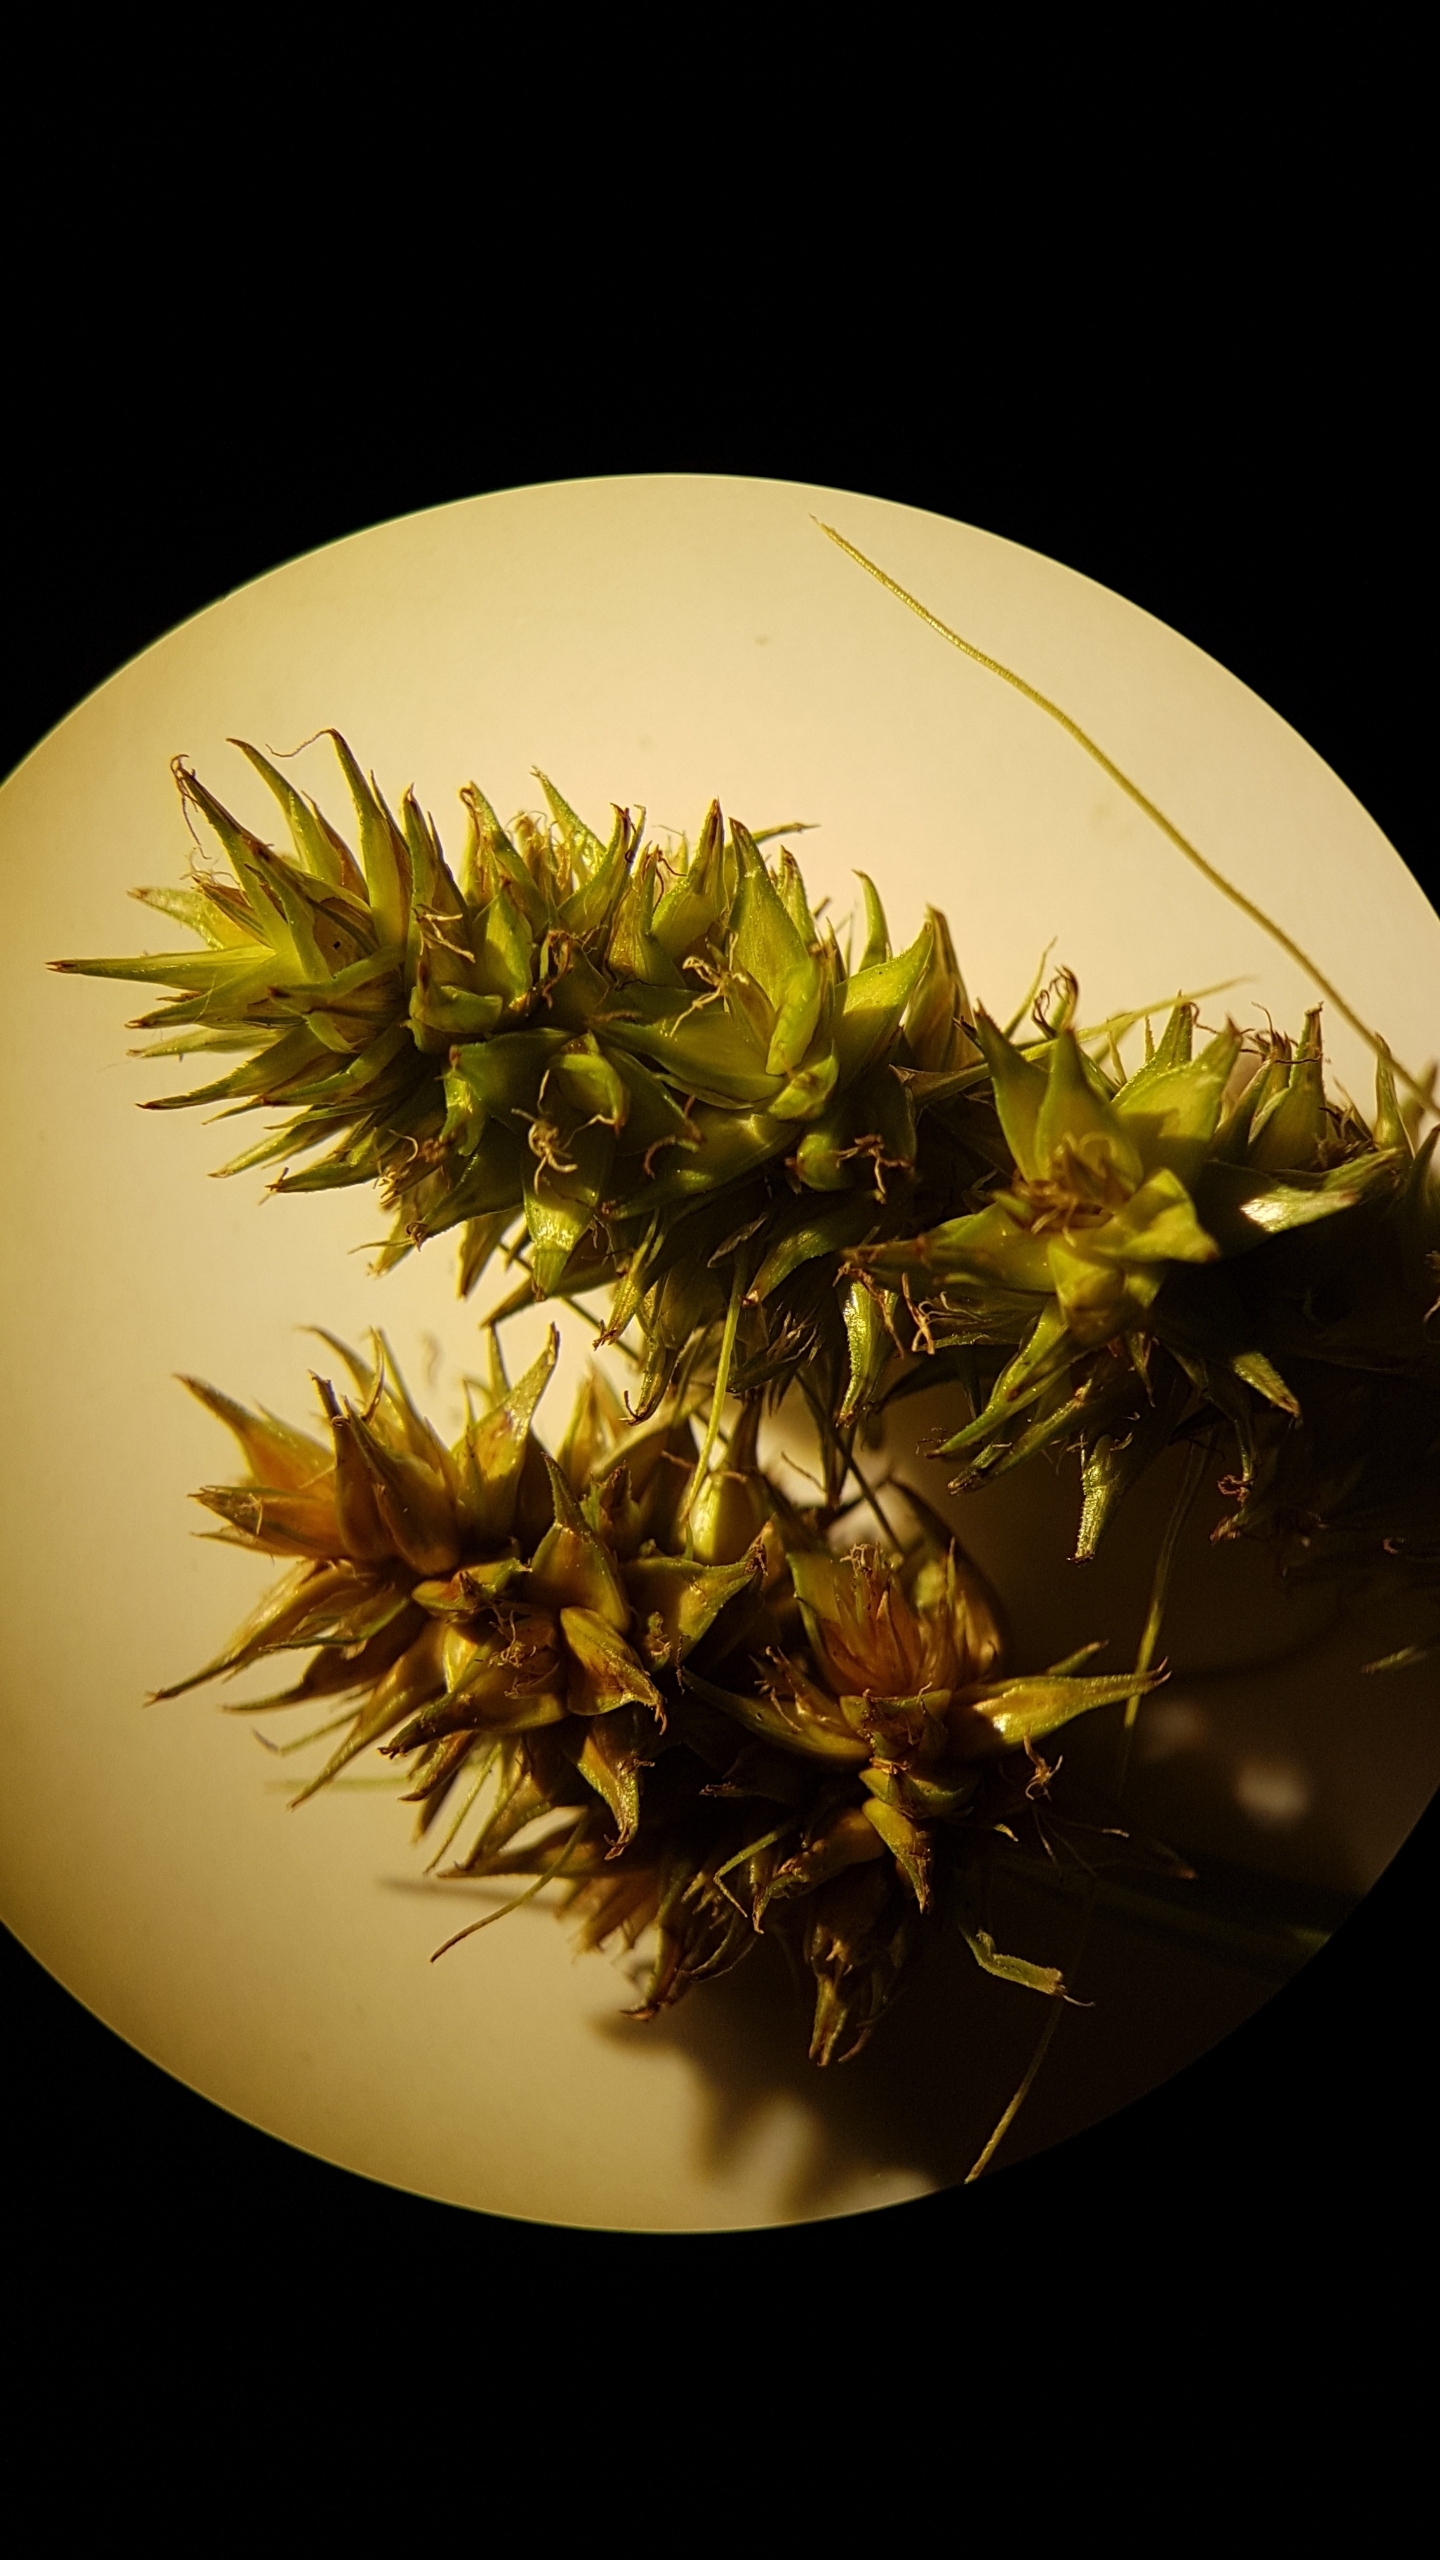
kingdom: Plantae
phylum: Tracheophyta
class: Liliopsida
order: Poales
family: Cyperaceae
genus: Carex
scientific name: Carex otrubae
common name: Sylt-star
